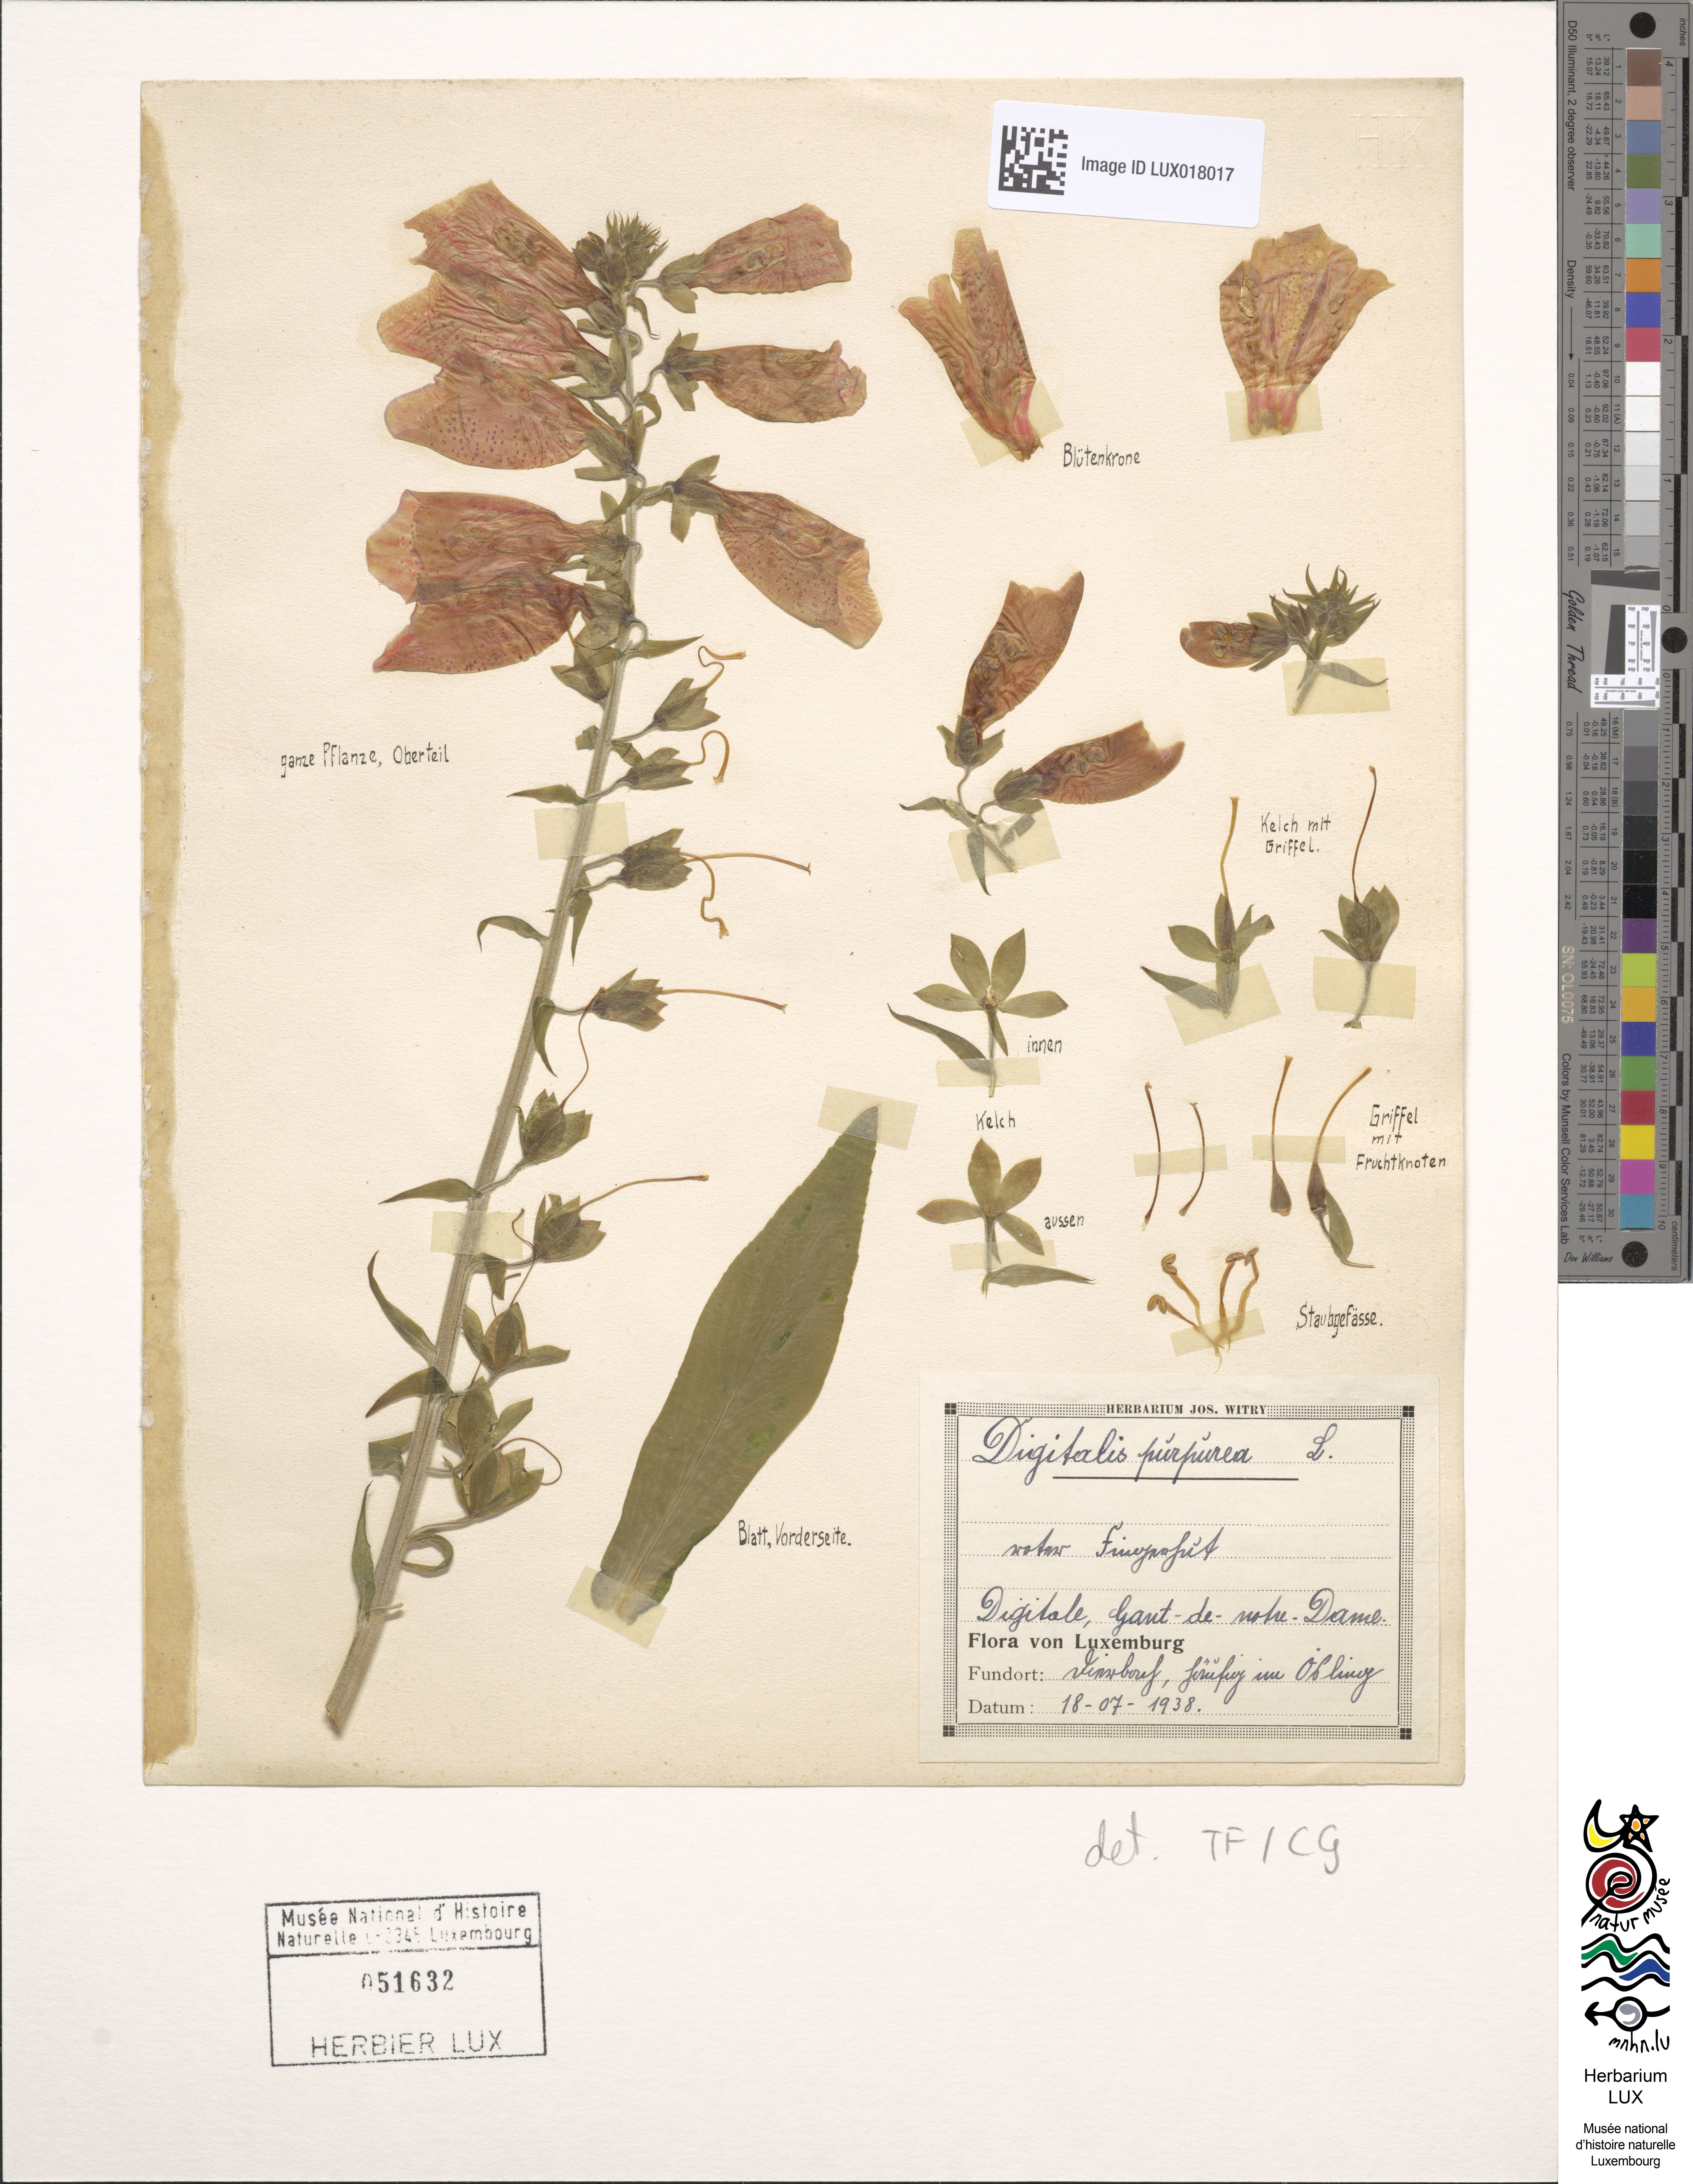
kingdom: Plantae
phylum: Tracheophyta
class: Magnoliopsida
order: Lamiales
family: Plantaginaceae
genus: Digitalis
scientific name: Digitalis purpurea
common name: Foxglove
